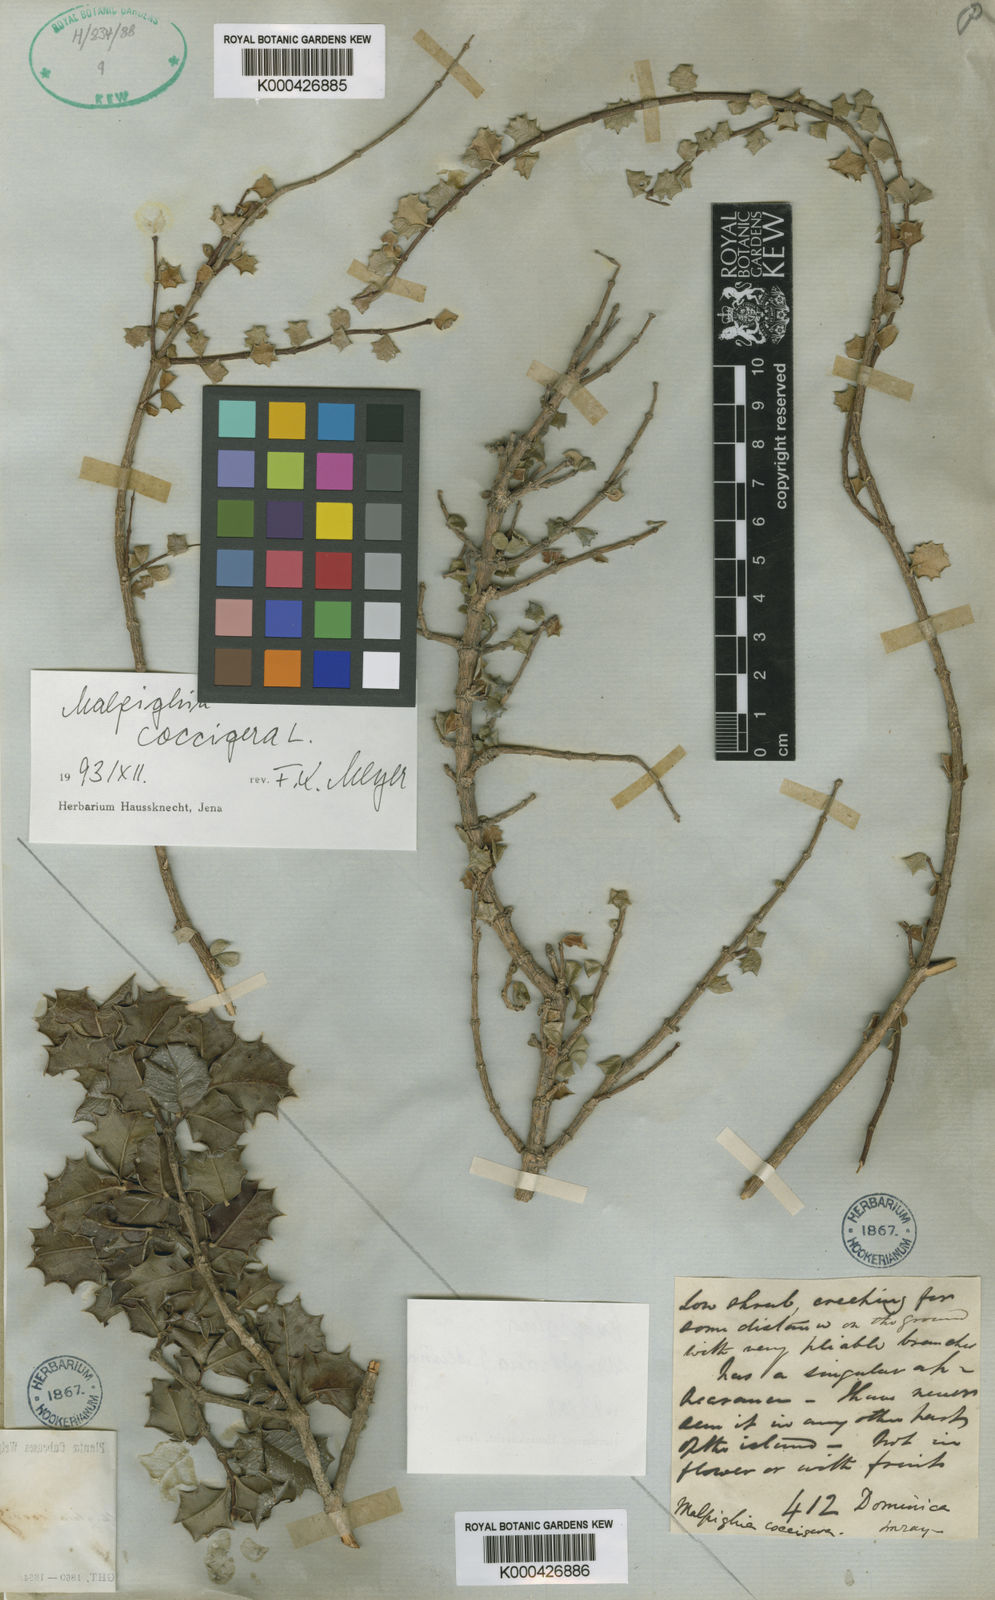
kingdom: Plantae
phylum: Tracheophyta
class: Magnoliopsida
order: Malpighiales
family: Malpighiaceae
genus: Malpighia
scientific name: Malpighia
